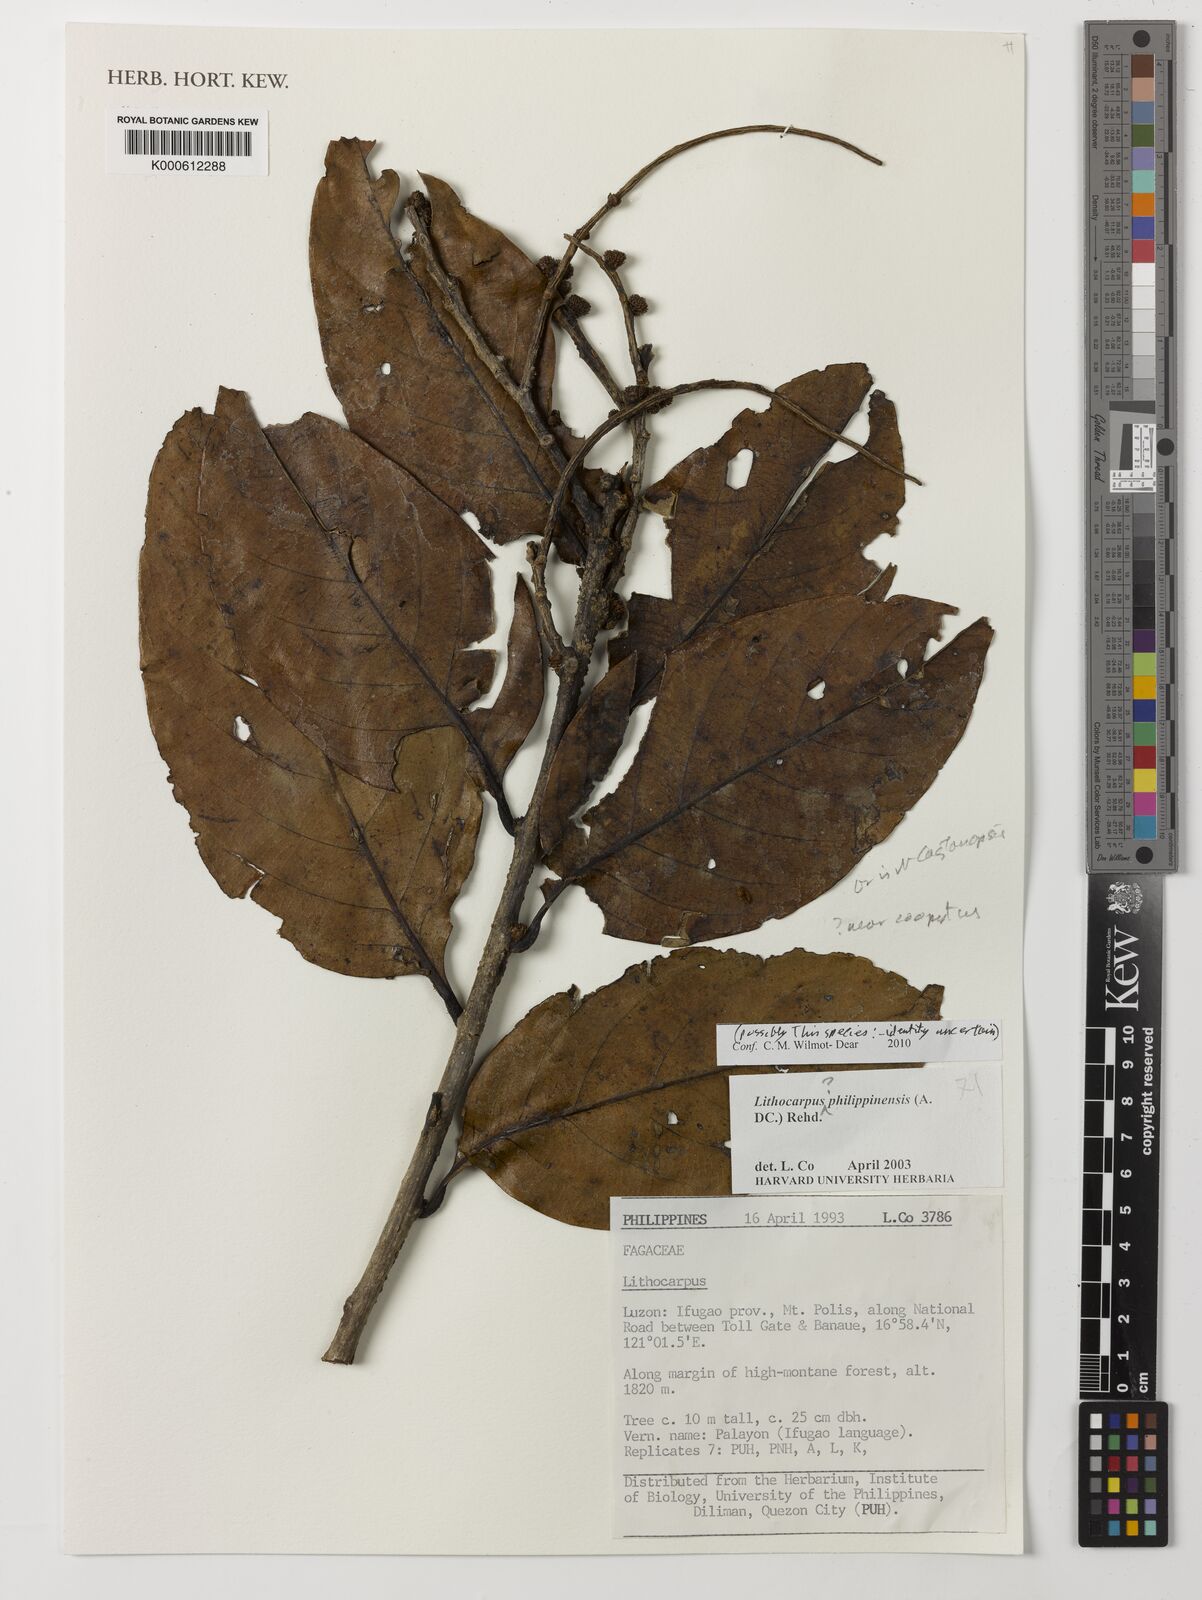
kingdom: Plantae
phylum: Tracheophyta
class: Magnoliopsida
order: Fagales
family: Fagaceae
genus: Lithocarpus
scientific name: Lithocarpus philippinensis
